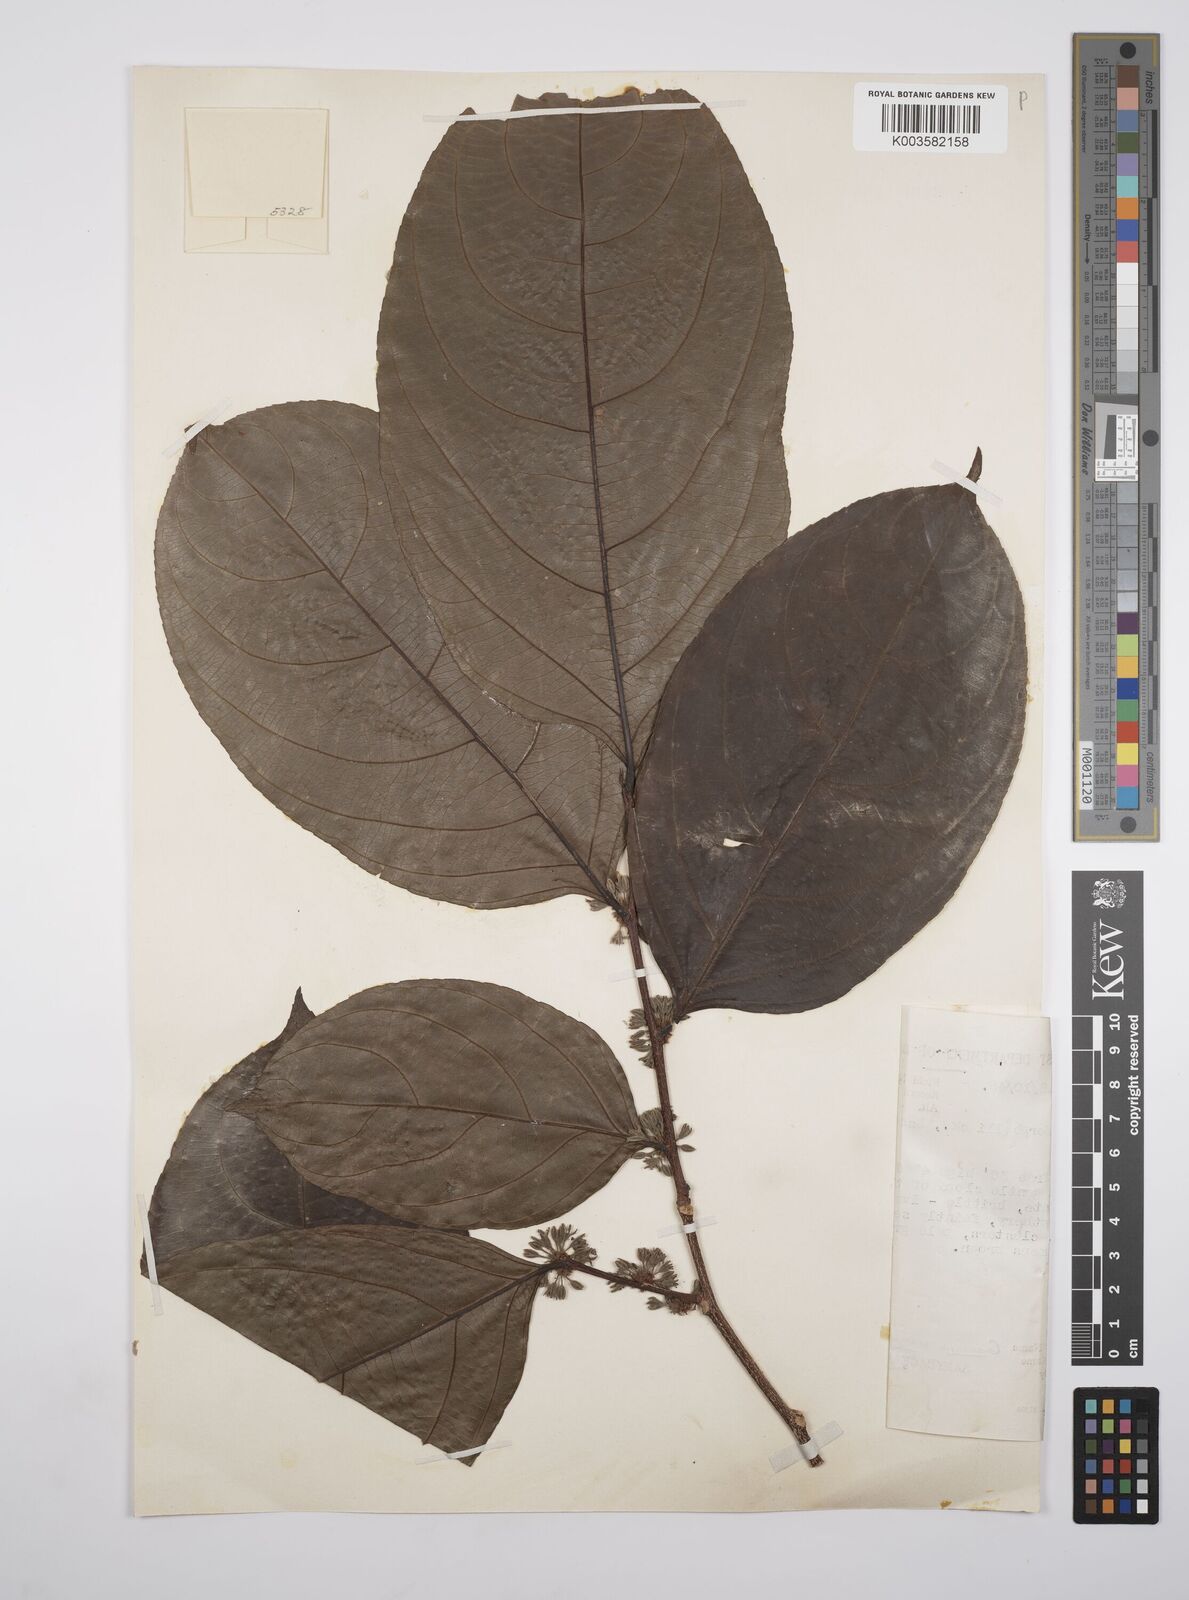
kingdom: Plantae
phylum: Tracheophyta
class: Magnoliopsida
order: Malpighiales
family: Salicaceae
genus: Casearia
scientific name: Casearia pitumba
